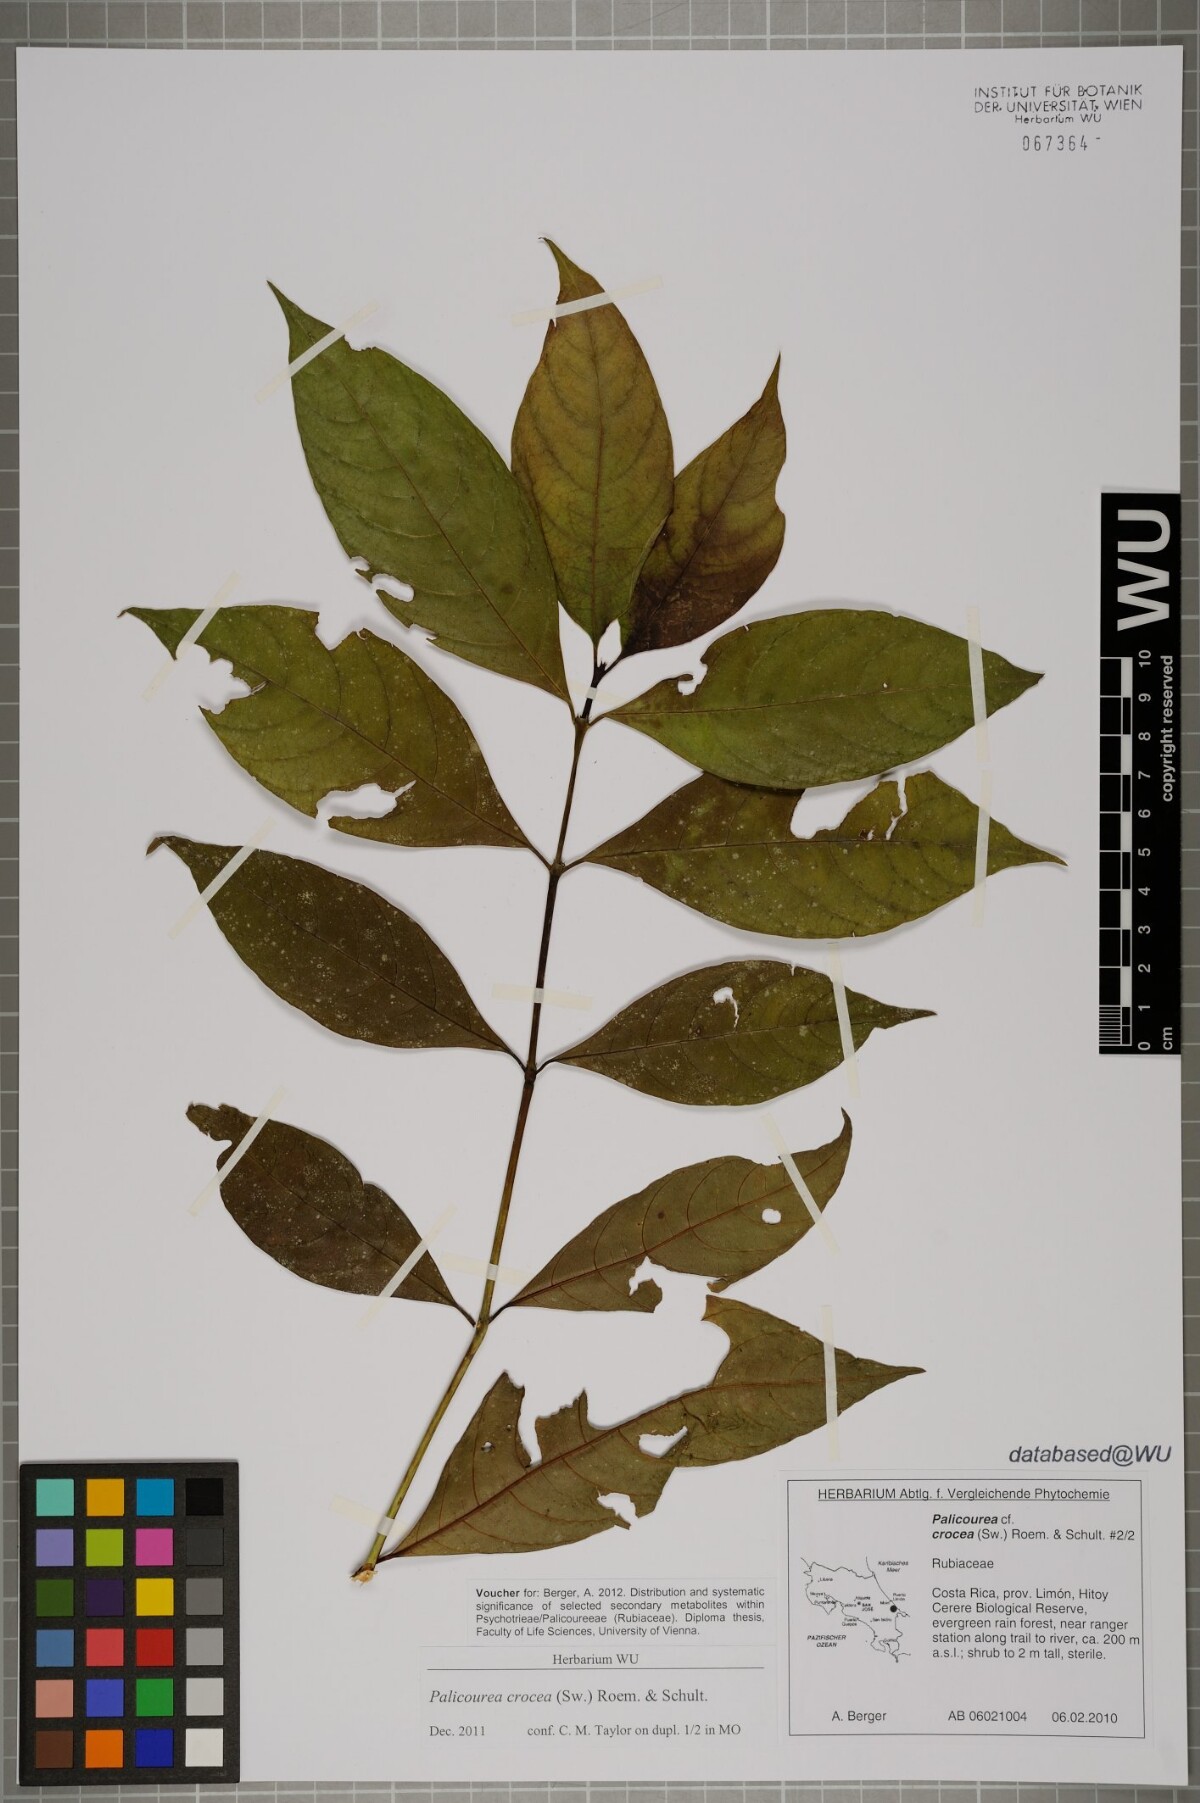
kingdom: Plantae
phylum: Tracheophyta
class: Magnoliopsida
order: Gentianales
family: Rubiaceae
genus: Palicourea
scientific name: Palicourea crocea
